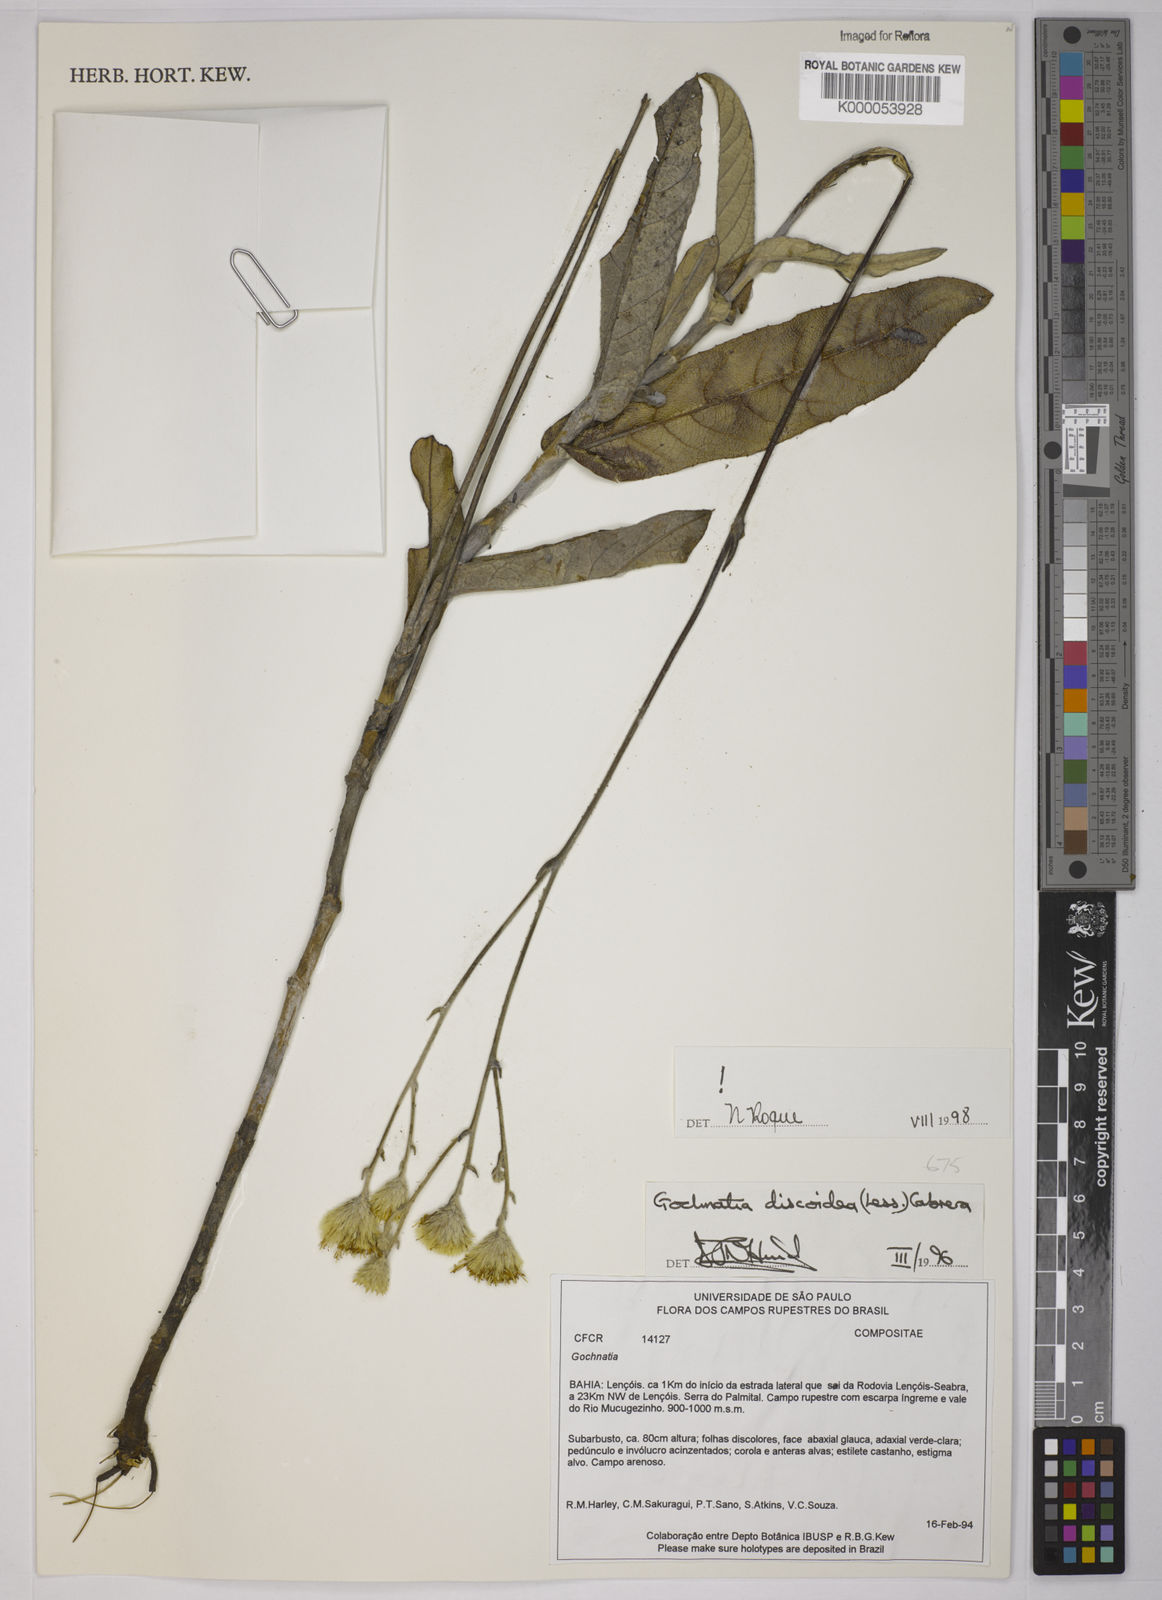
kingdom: Plantae
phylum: Tracheophyta
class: Magnoliopsida
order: Asterales
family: Asteraceae
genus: Richterago
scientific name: Richterago discoidea
